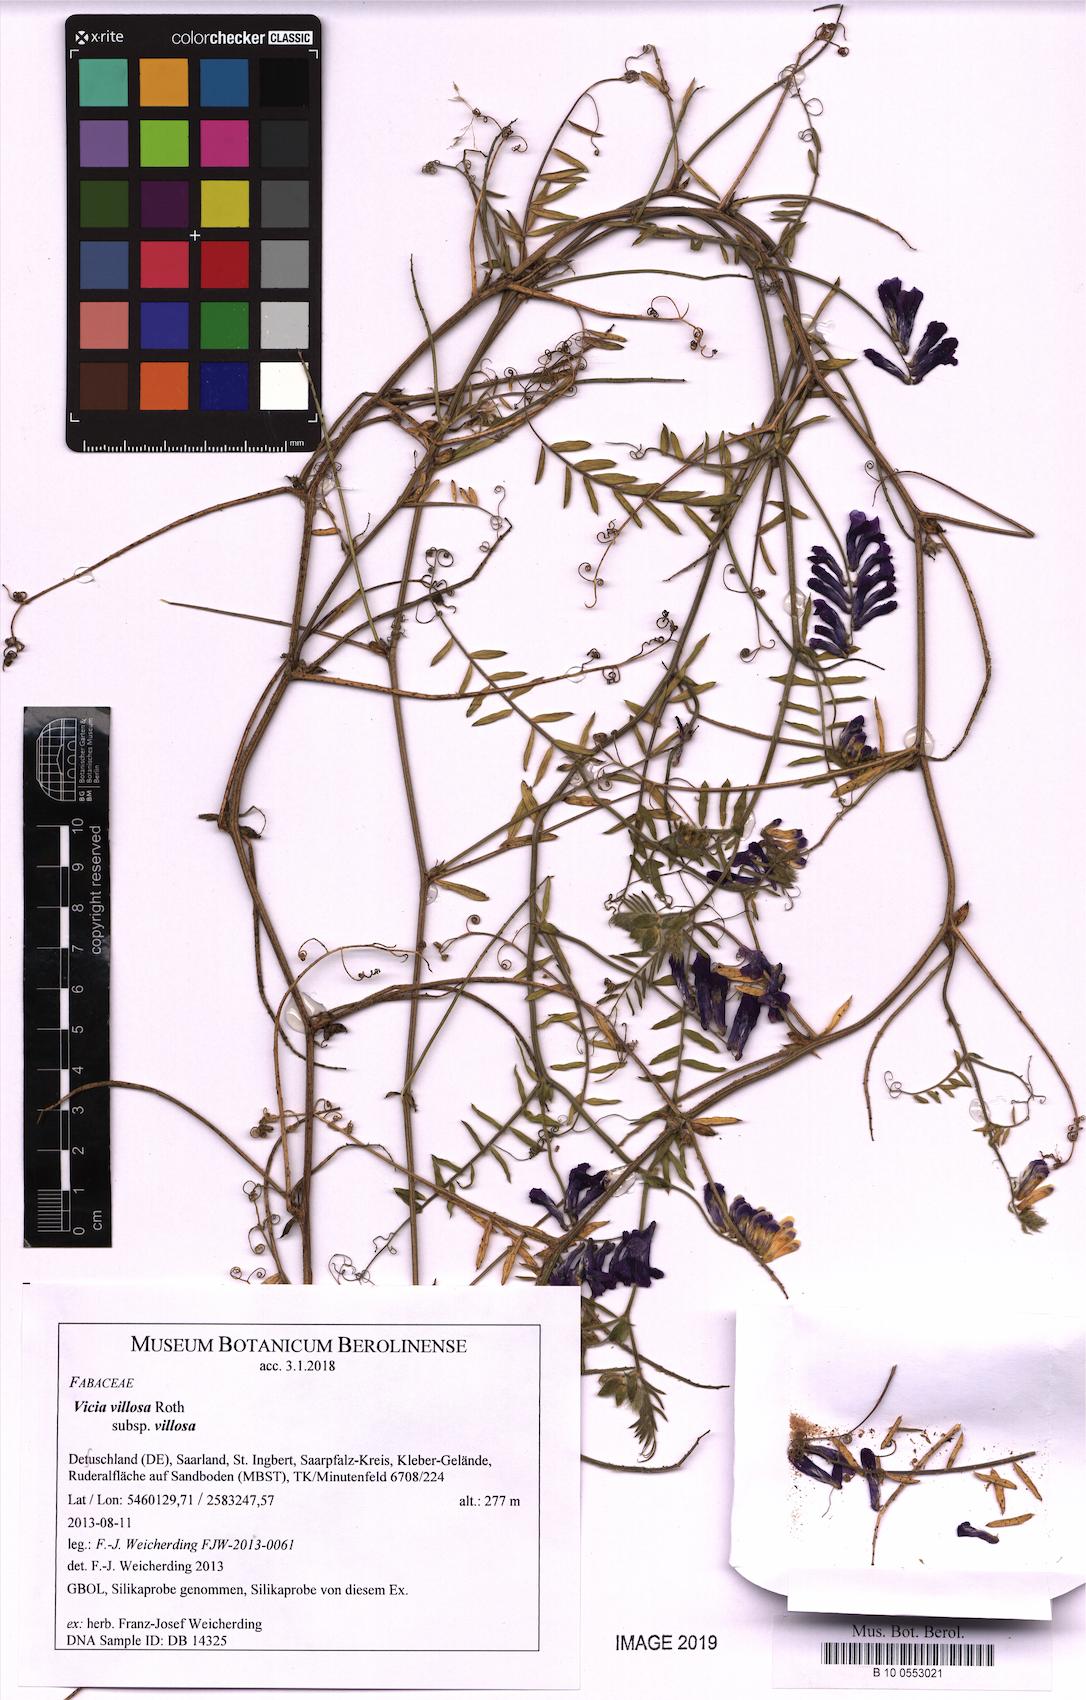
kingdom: Plantae
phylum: Tracheophyta
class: Magnoliopsida
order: Fabales
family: Fabaceae
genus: Vicia
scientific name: Vicia villosa
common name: Fodder vetch
